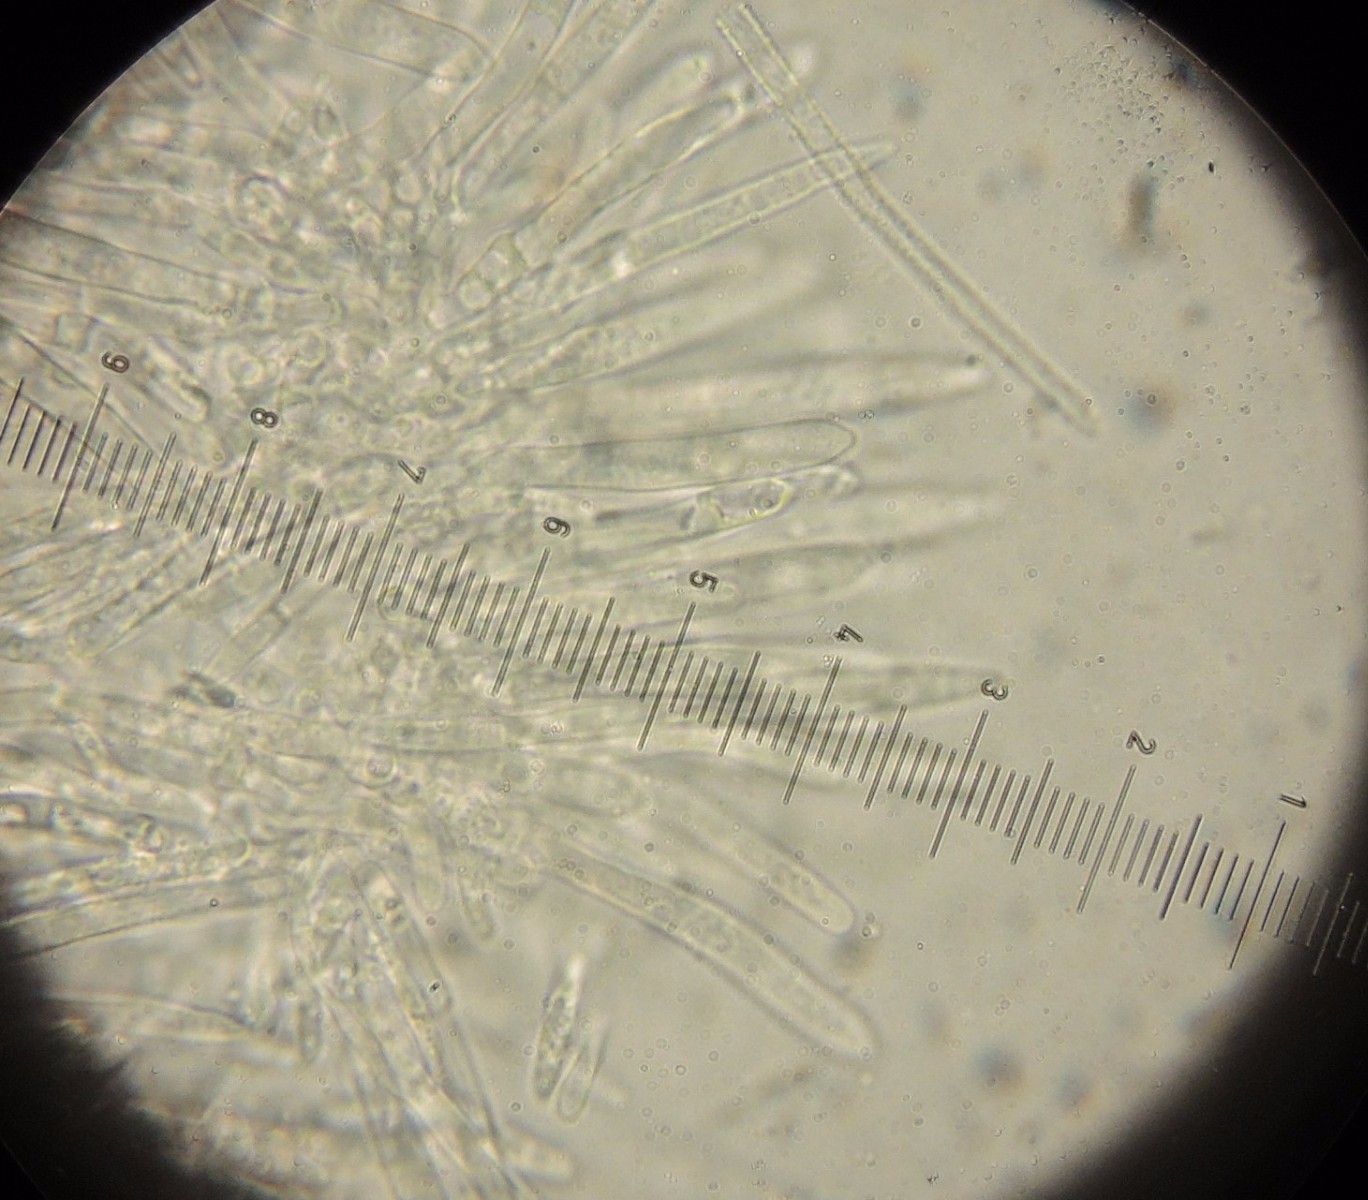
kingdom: Fungi
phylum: Ascomycota
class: Leotiomycetes
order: Helotiales
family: Lachnaceae
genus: Lachnum
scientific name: Lachnum tenuipilosum
